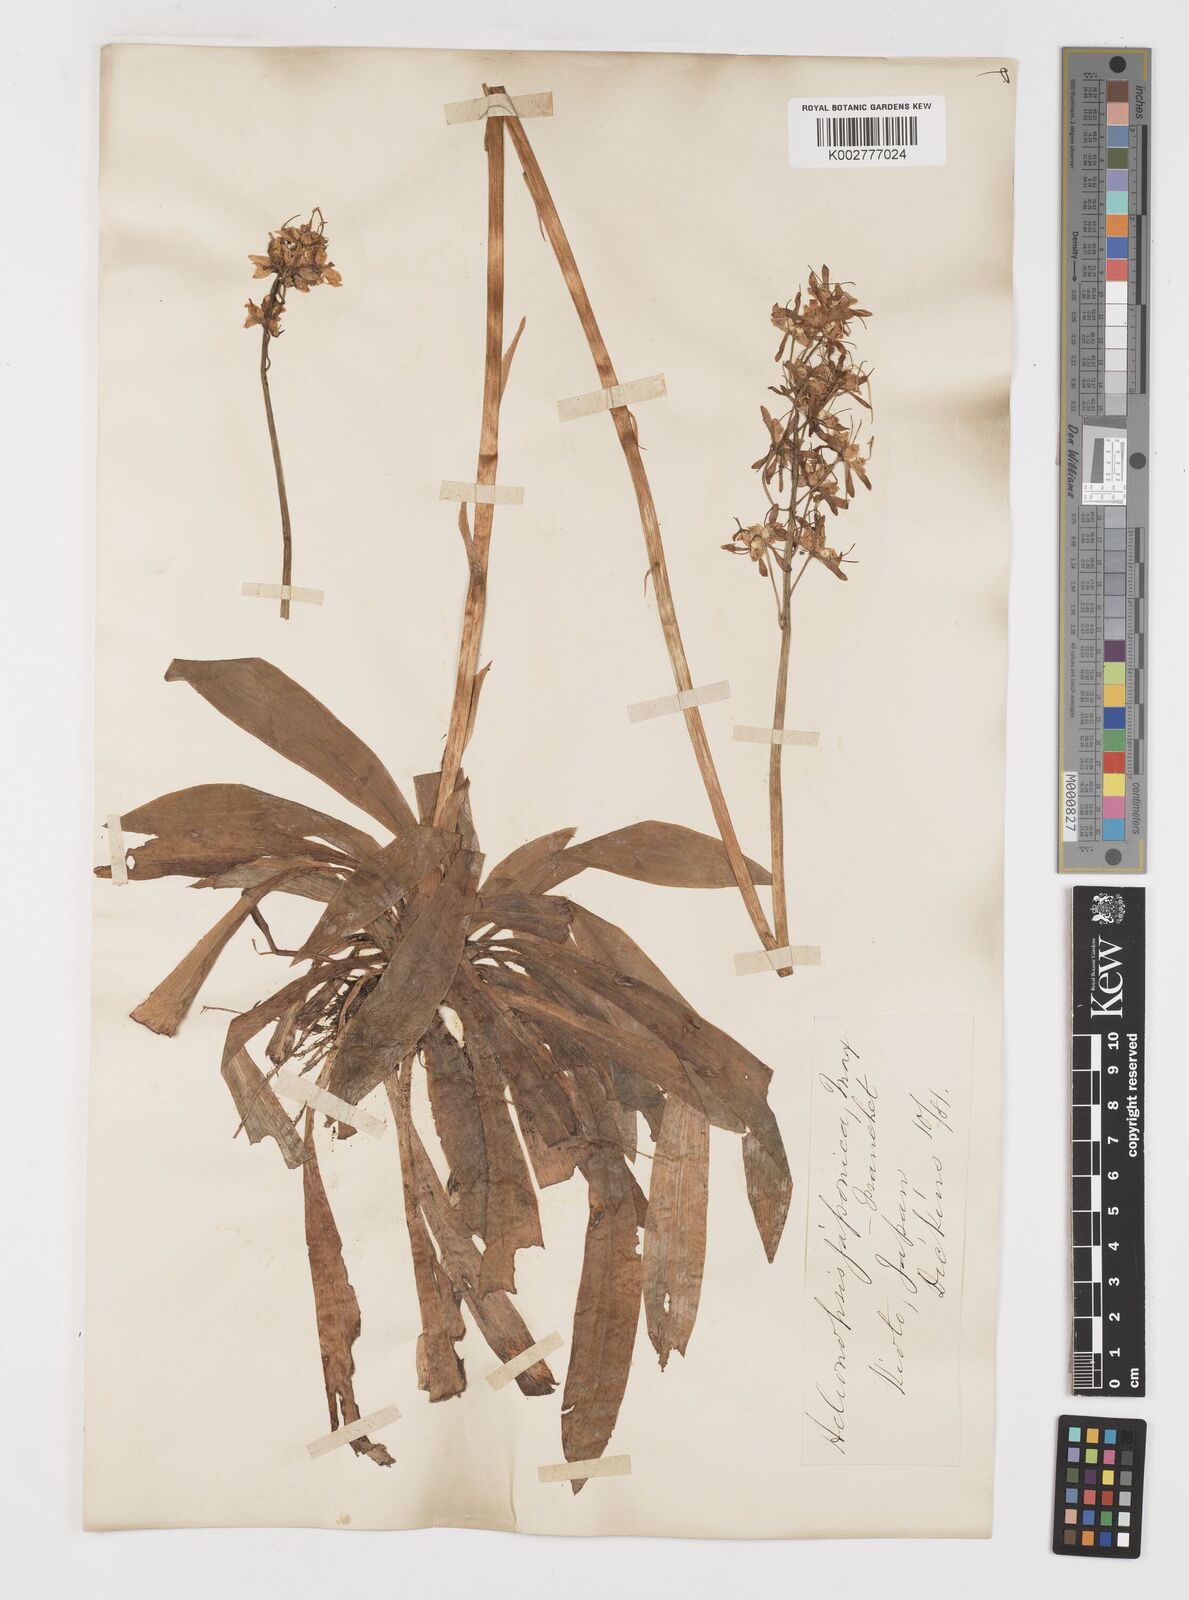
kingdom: Plantae
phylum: Tracheophyta
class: Liliopsida
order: Liliales
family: Melanthiaceae
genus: Helonias
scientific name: Helonias orientalis
